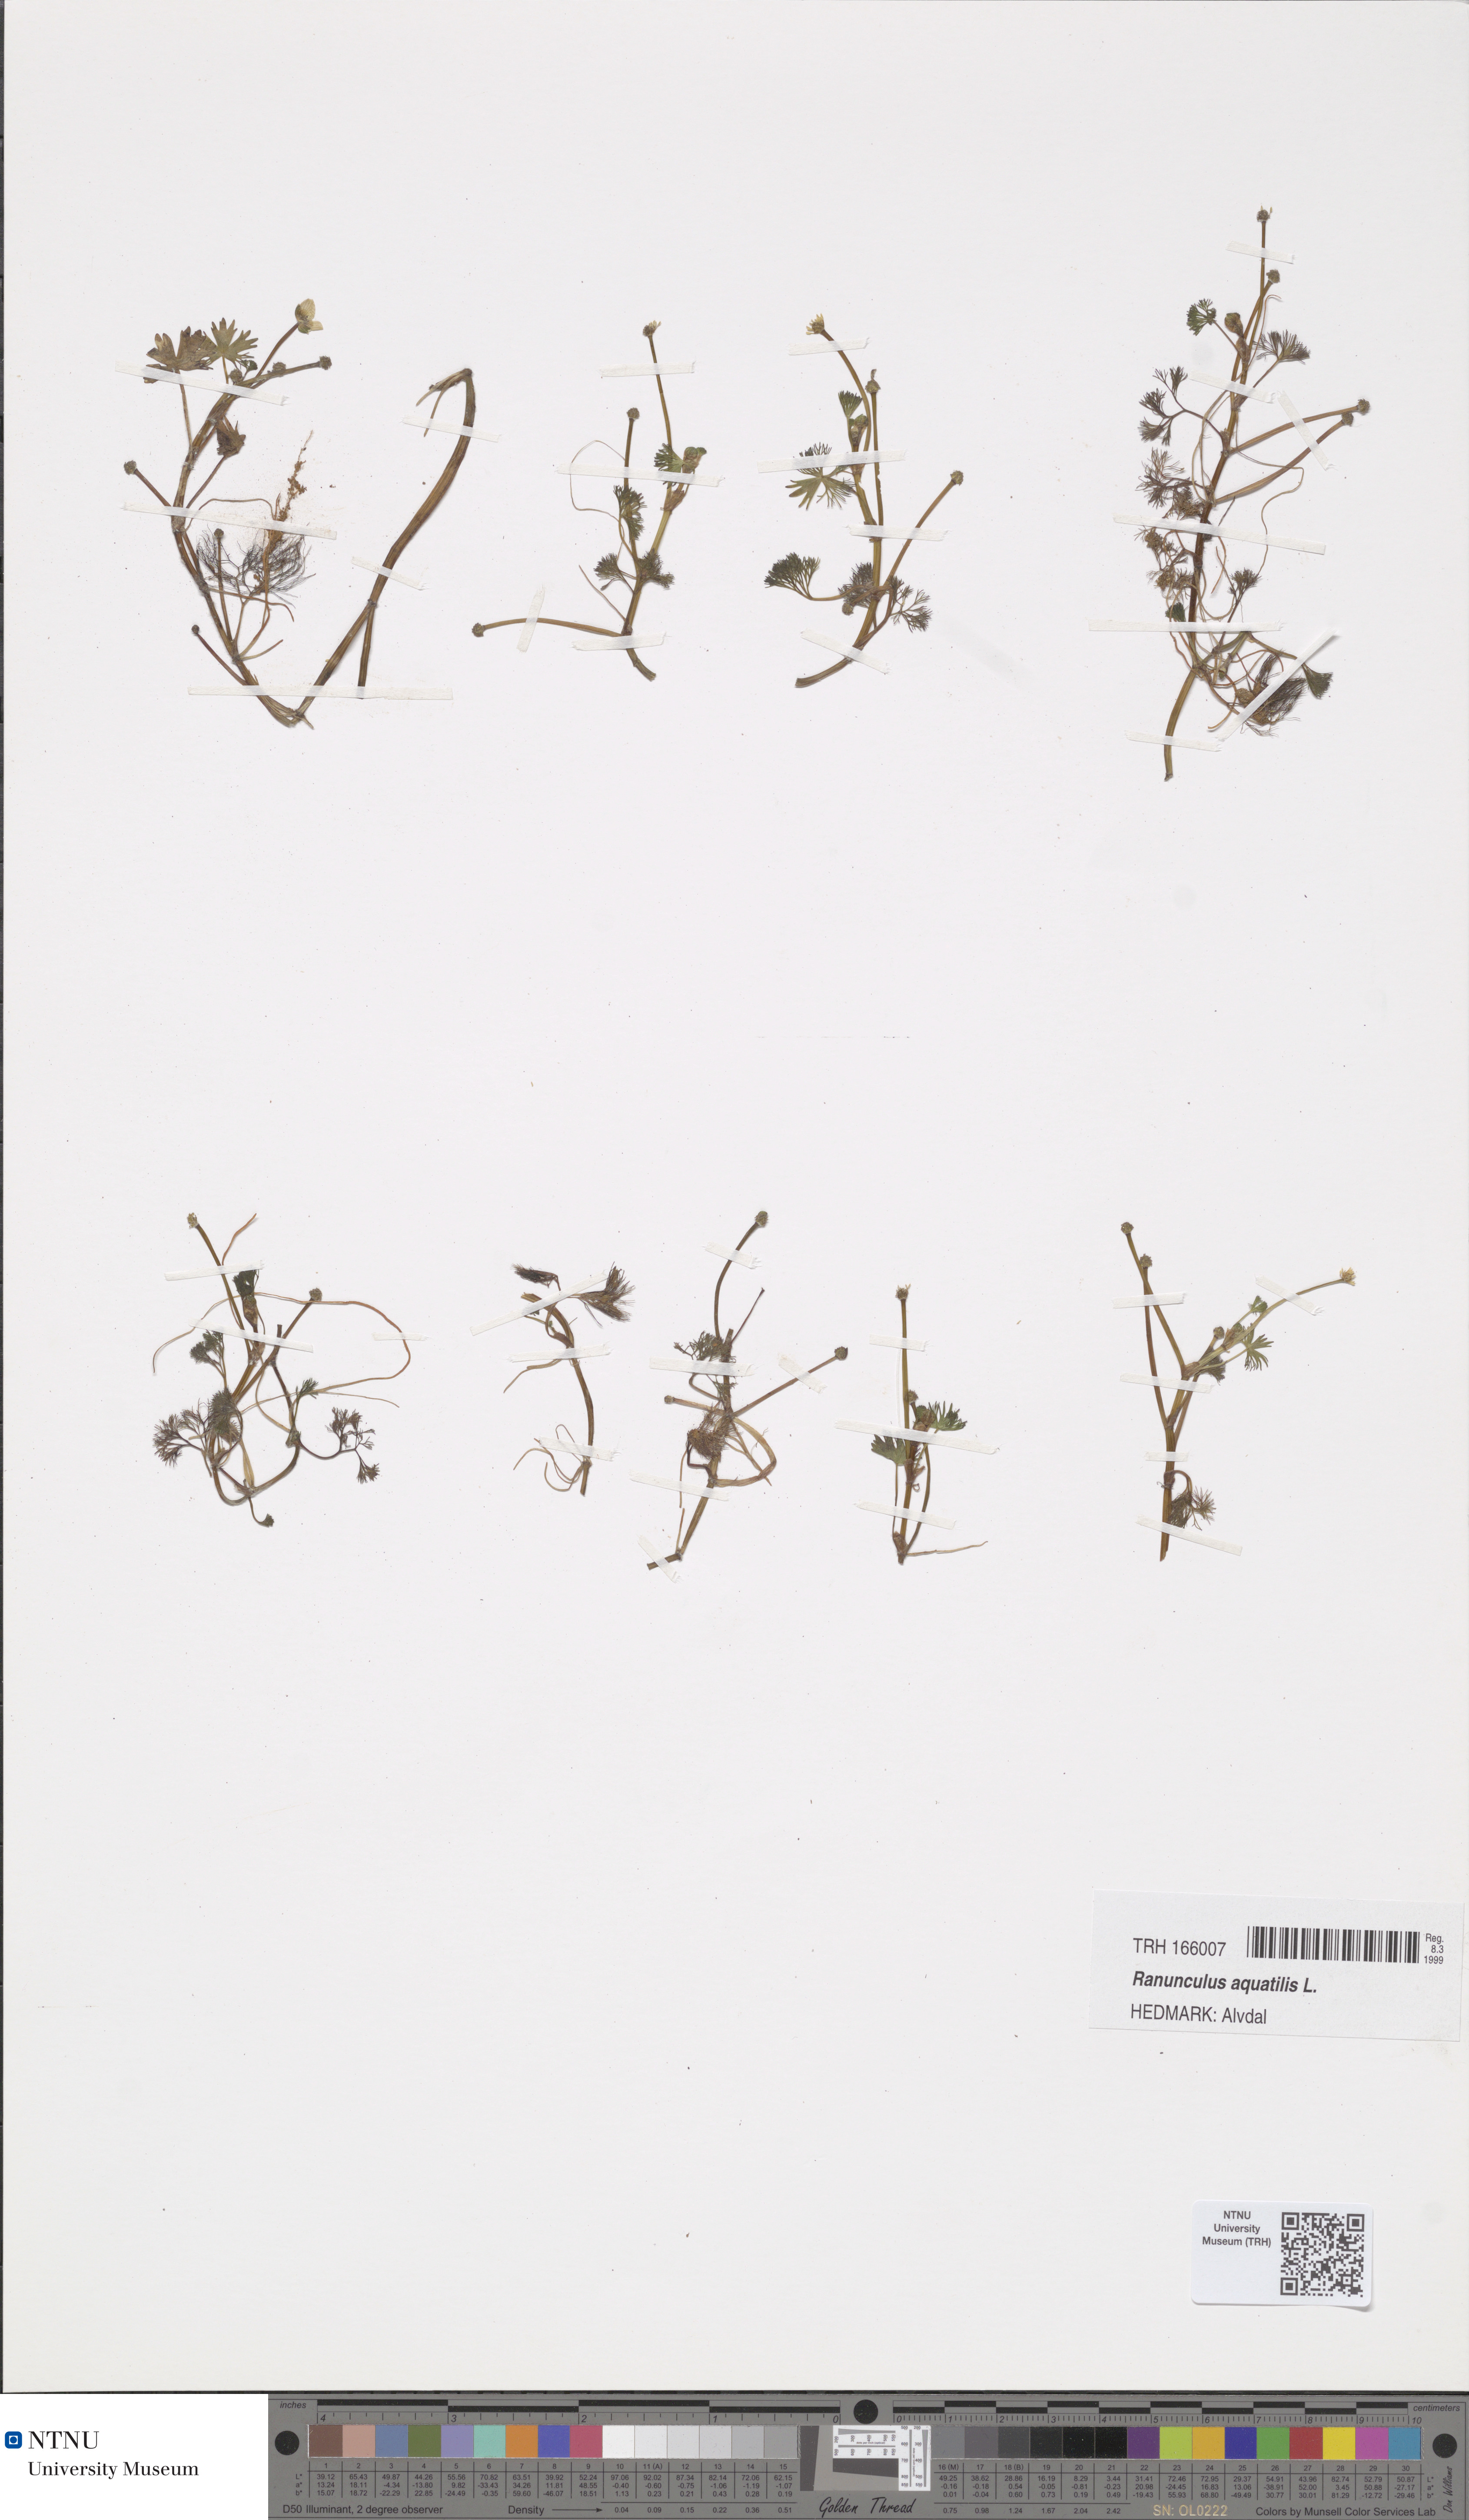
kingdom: Plantae
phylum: Tracheophyta
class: Magnoliopsida
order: Ranunculales
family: Ranunculaceae
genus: Ranunculus
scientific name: Ranunculus aquatilis
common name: Common water-crowfoot
